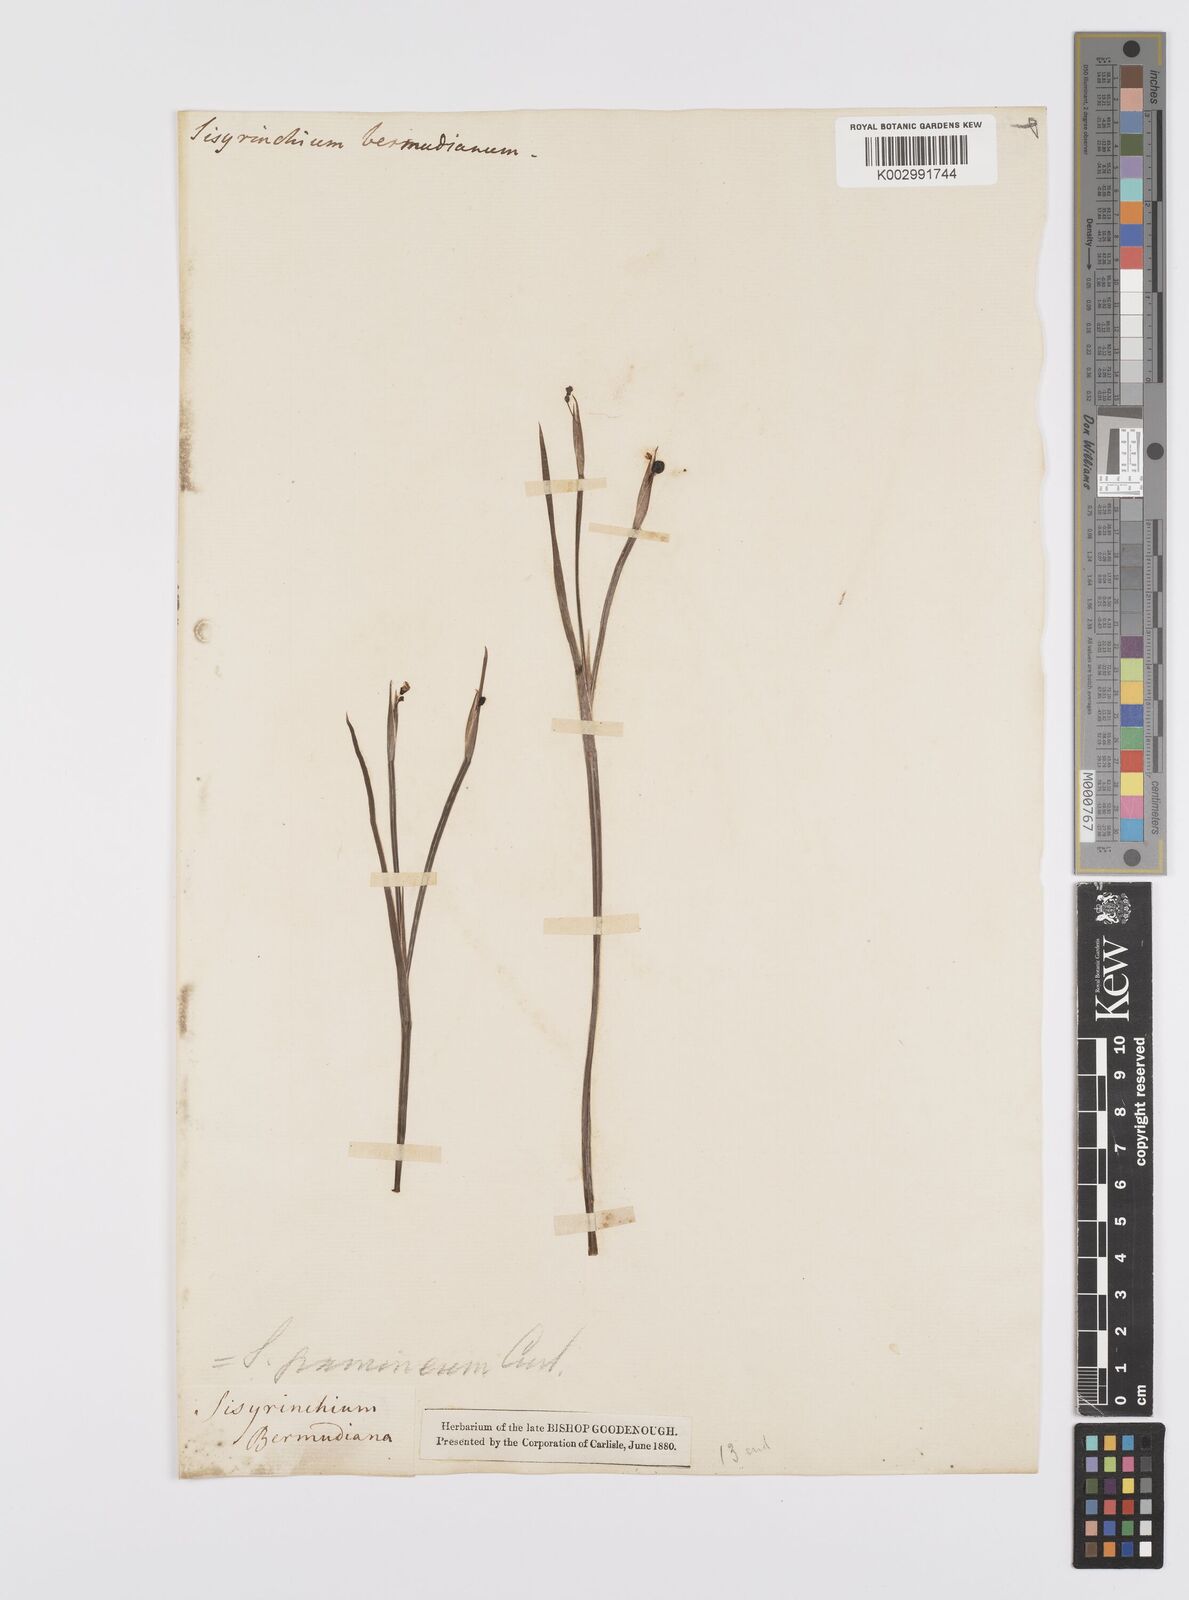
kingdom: Plantae
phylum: Tracheophyta
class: Liliopsida
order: Asparagales
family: Iridaceae
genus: Sisyrinchium
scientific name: Sisyrinchium bermudiana
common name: Blue-eyed-grass
